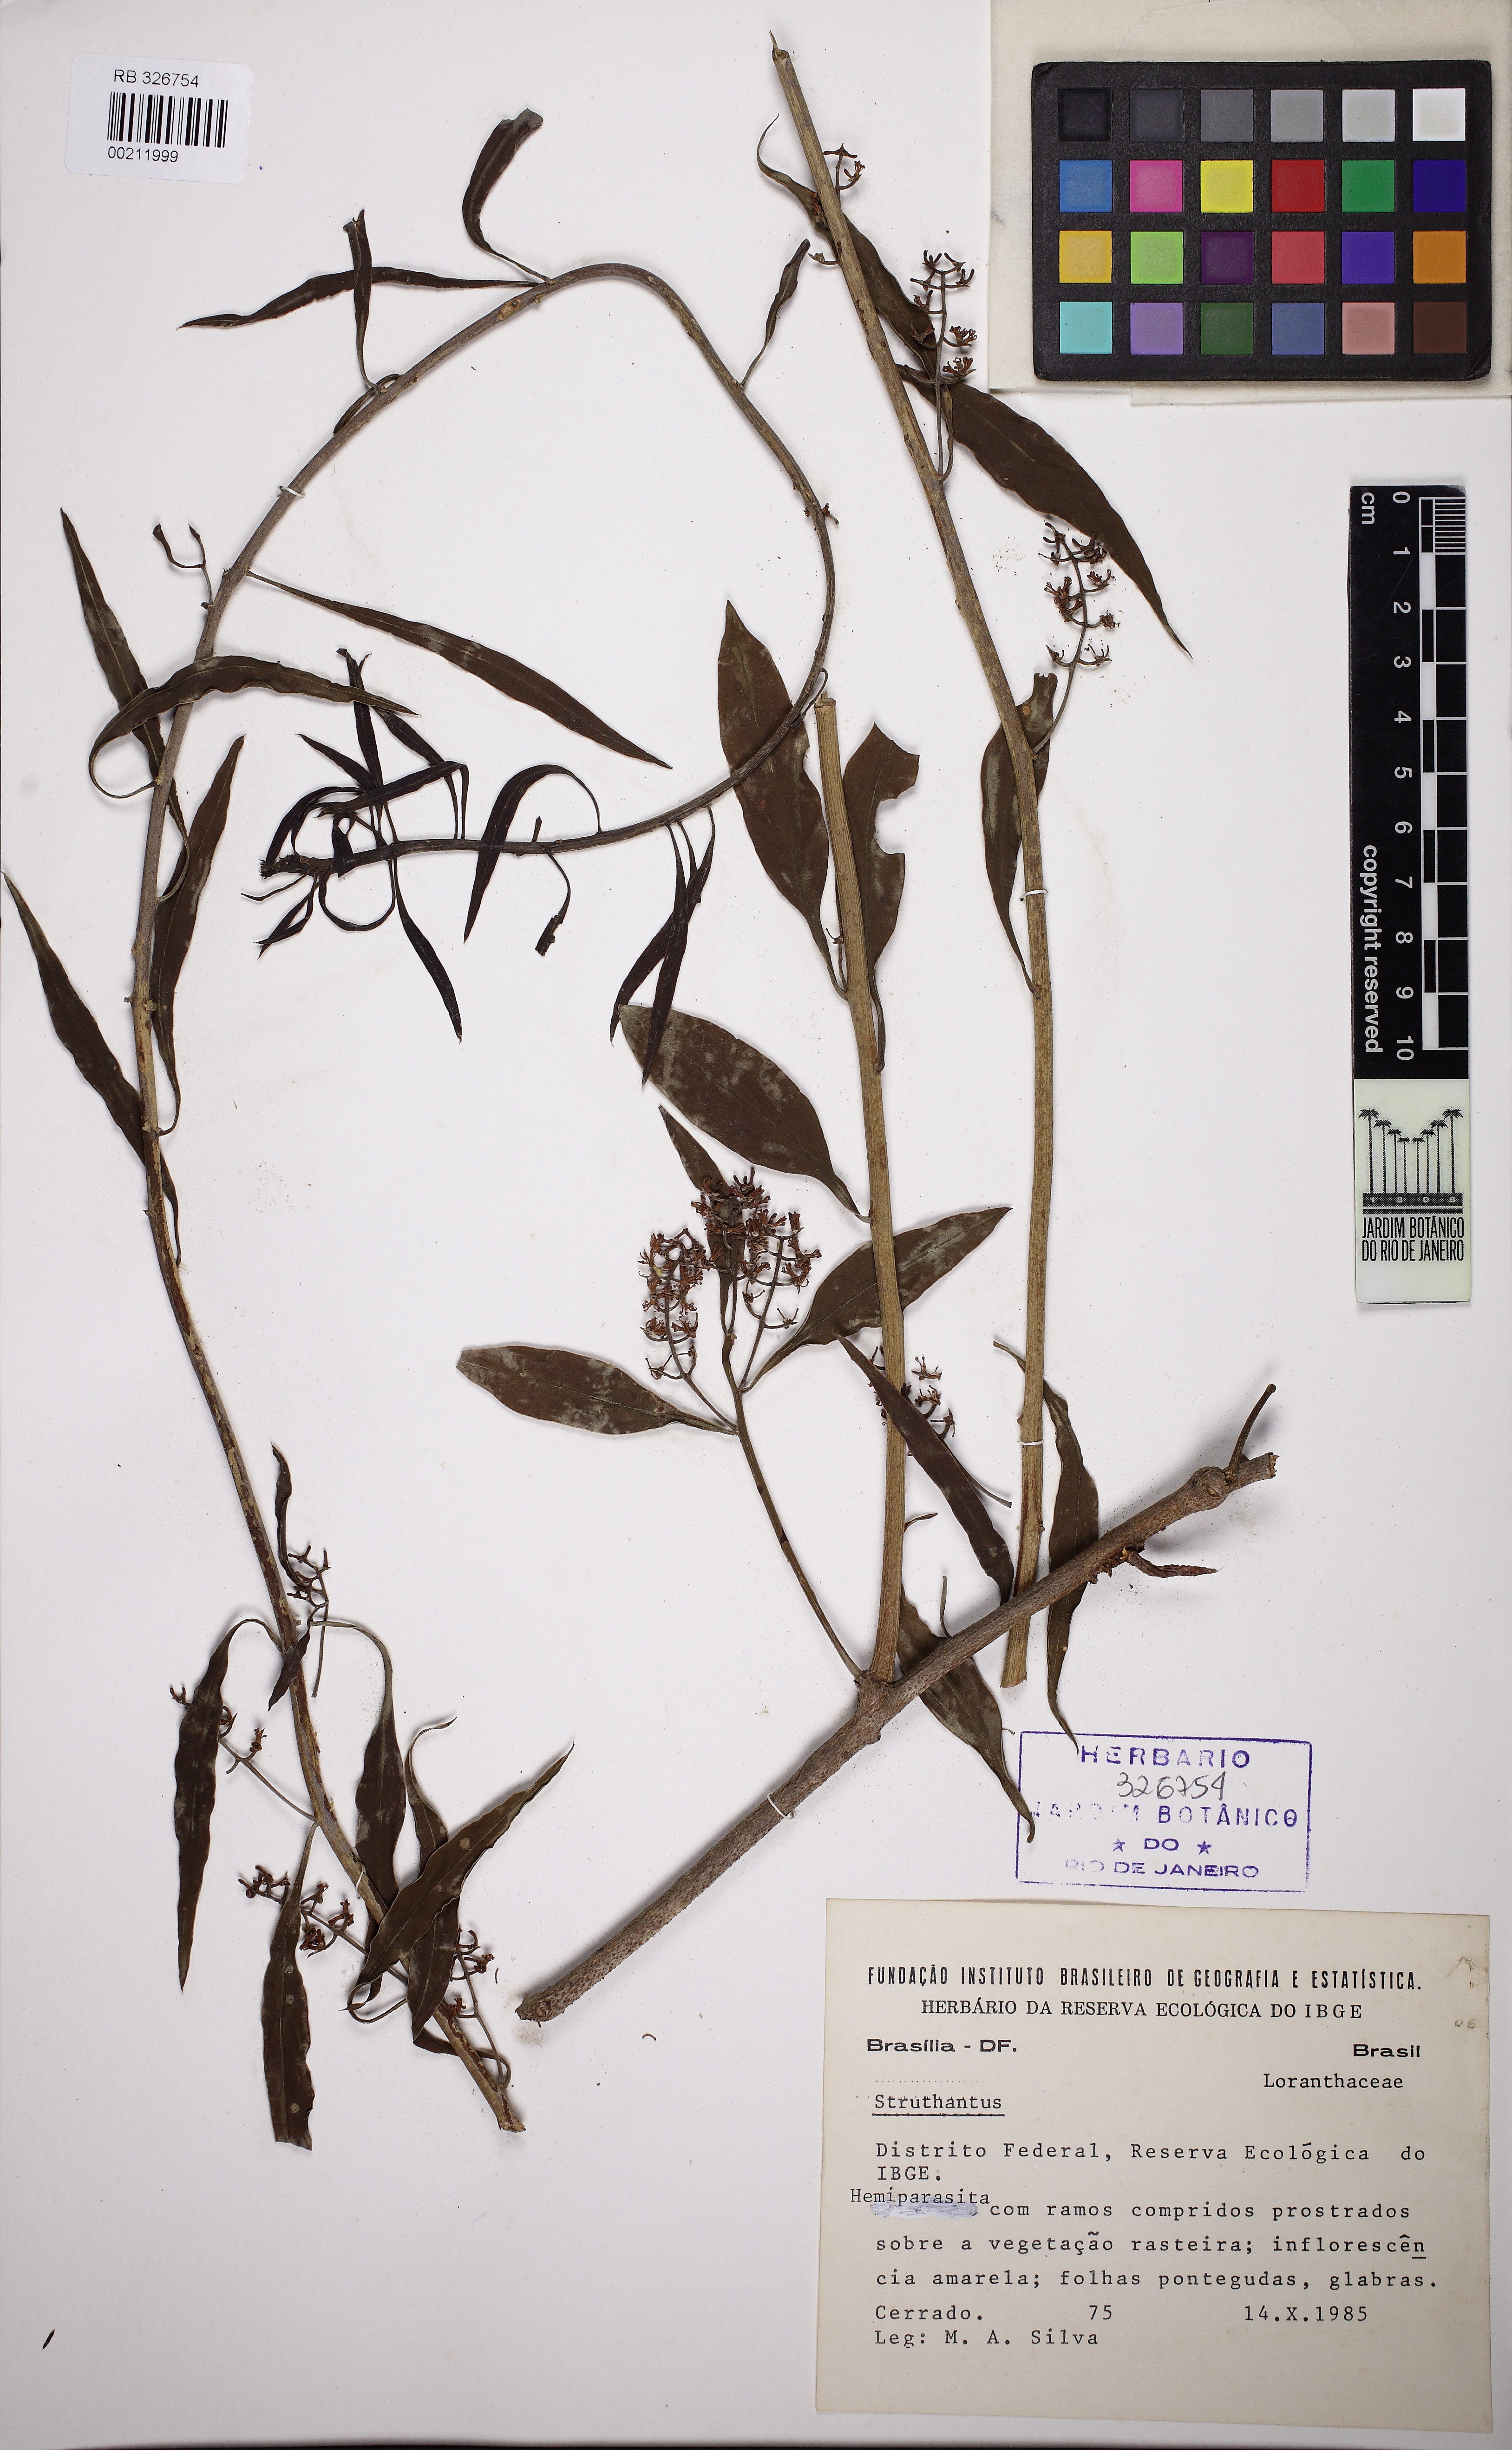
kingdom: Plantae
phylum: Tracheophyta
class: Magnoliopsida
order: Santalales
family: Loranthaceae
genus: Struthanthus
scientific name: Struthanthus
